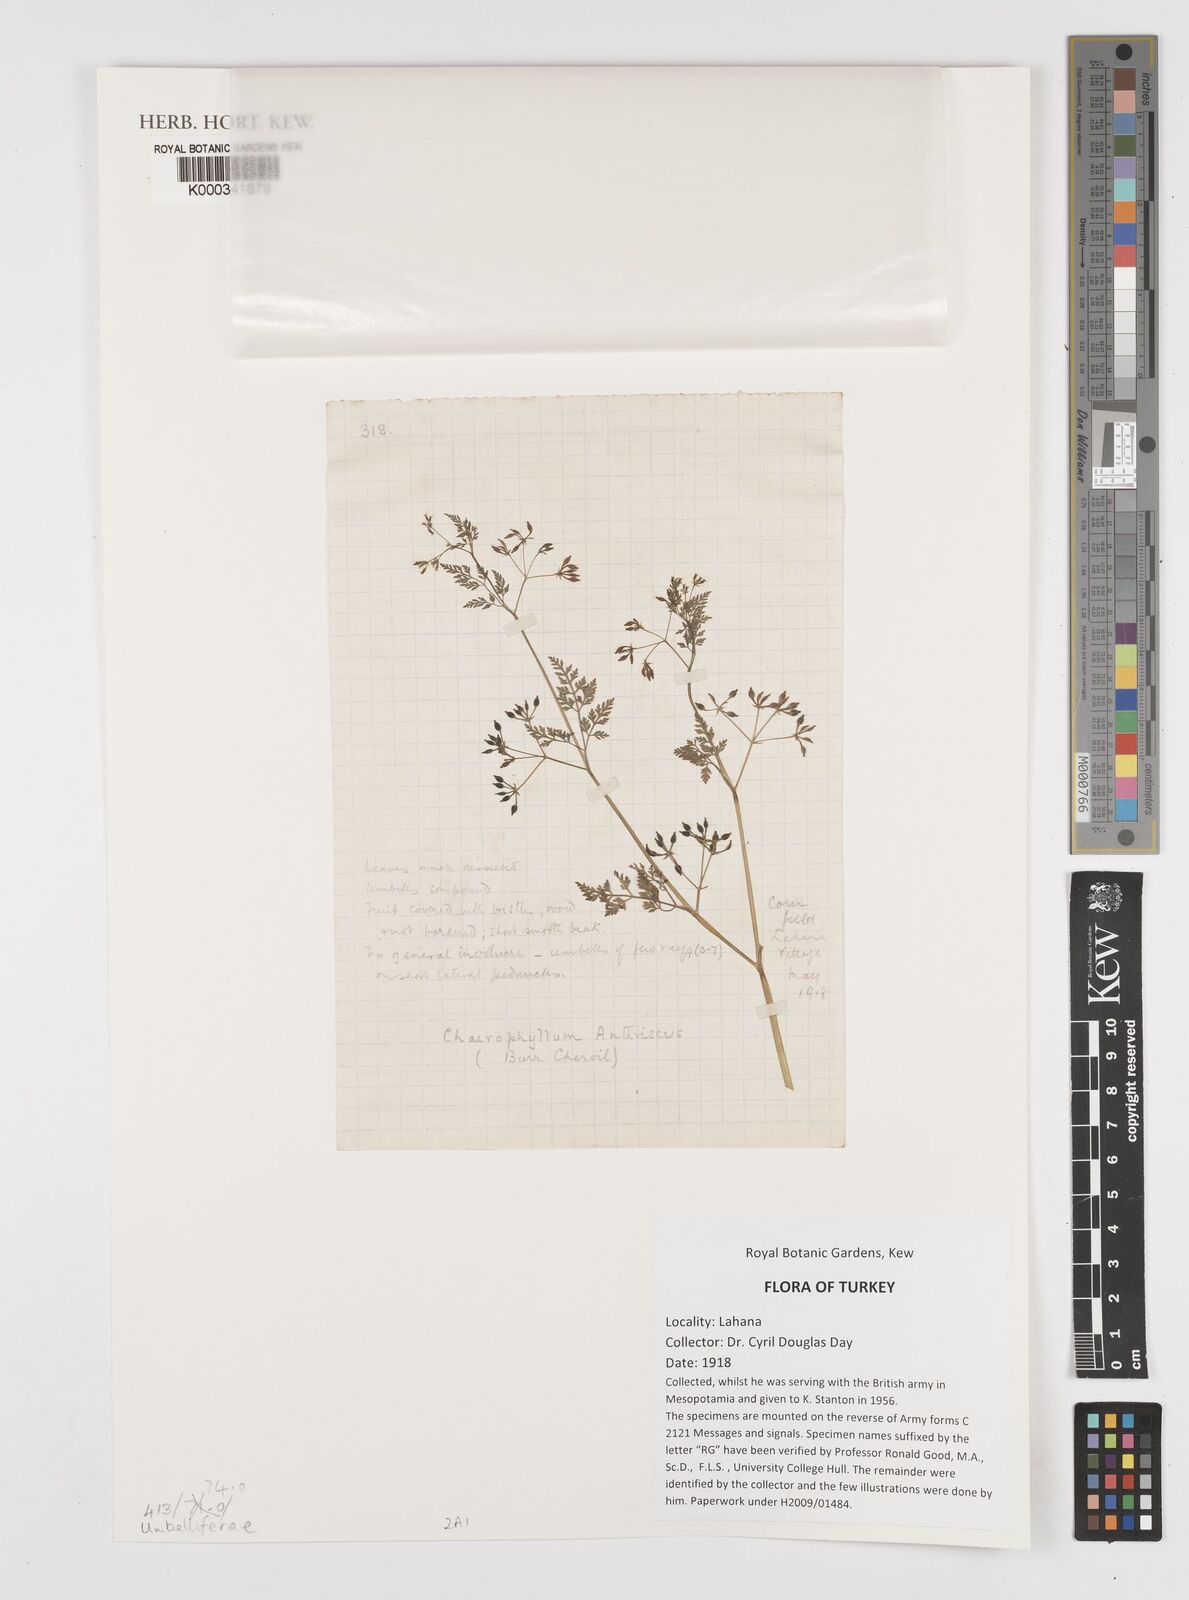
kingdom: Plantae
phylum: Tracheophyta
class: Magnoliopsida
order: Apiales
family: Apiaceae
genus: Chaerophyllum
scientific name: Chaerophyllum
